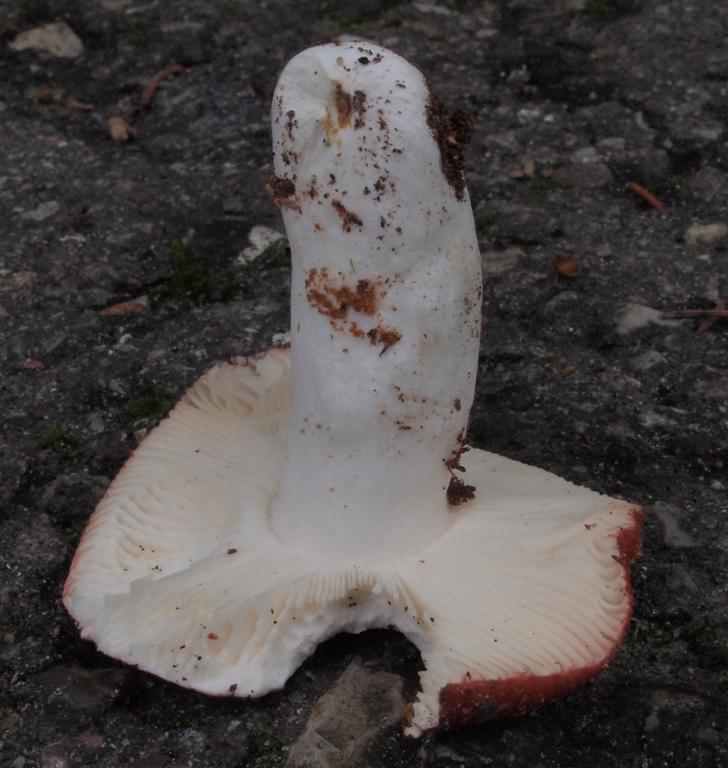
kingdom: Fungi
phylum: Basidiomycota
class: Agaricomycetes
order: Russulales
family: Russulaceae
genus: Russula
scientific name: Russula velenovskyi
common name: orangerød skørhat
